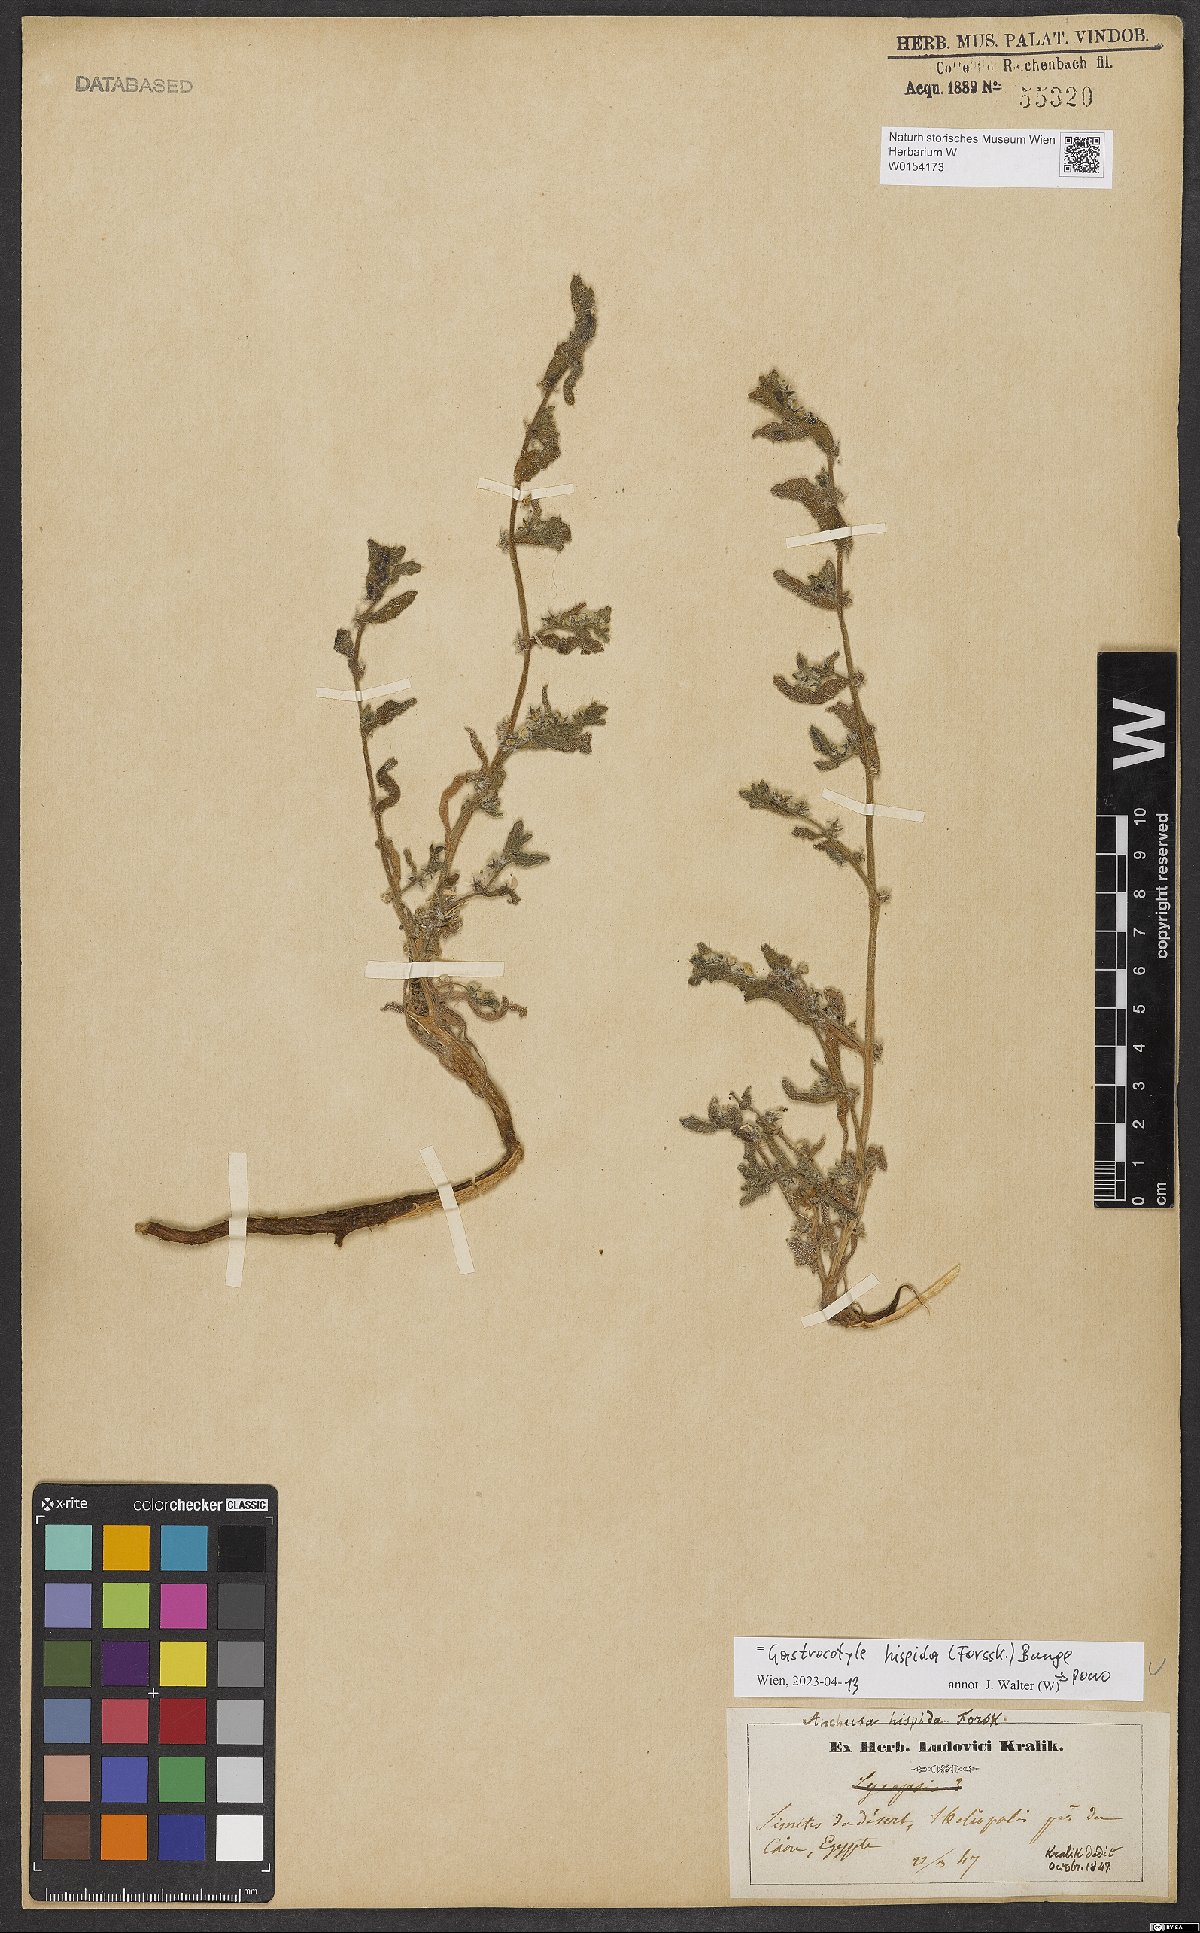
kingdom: Plantae
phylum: Tracheophyta
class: Magnoliopsida
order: Boraginales
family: Boraginaceae
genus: Gastrocotyle
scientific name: Gastrocotyle hispida
